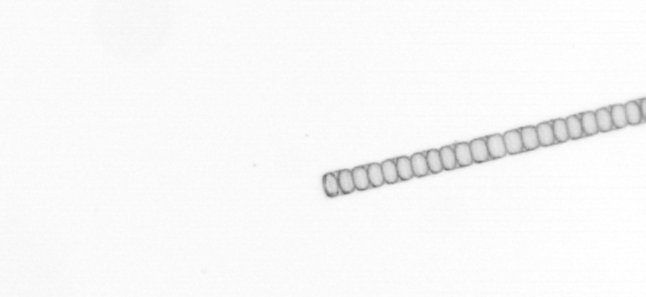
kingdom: Chromista
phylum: Ochrophyta
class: Bacillariophyceae
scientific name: Bacillariophyceae
